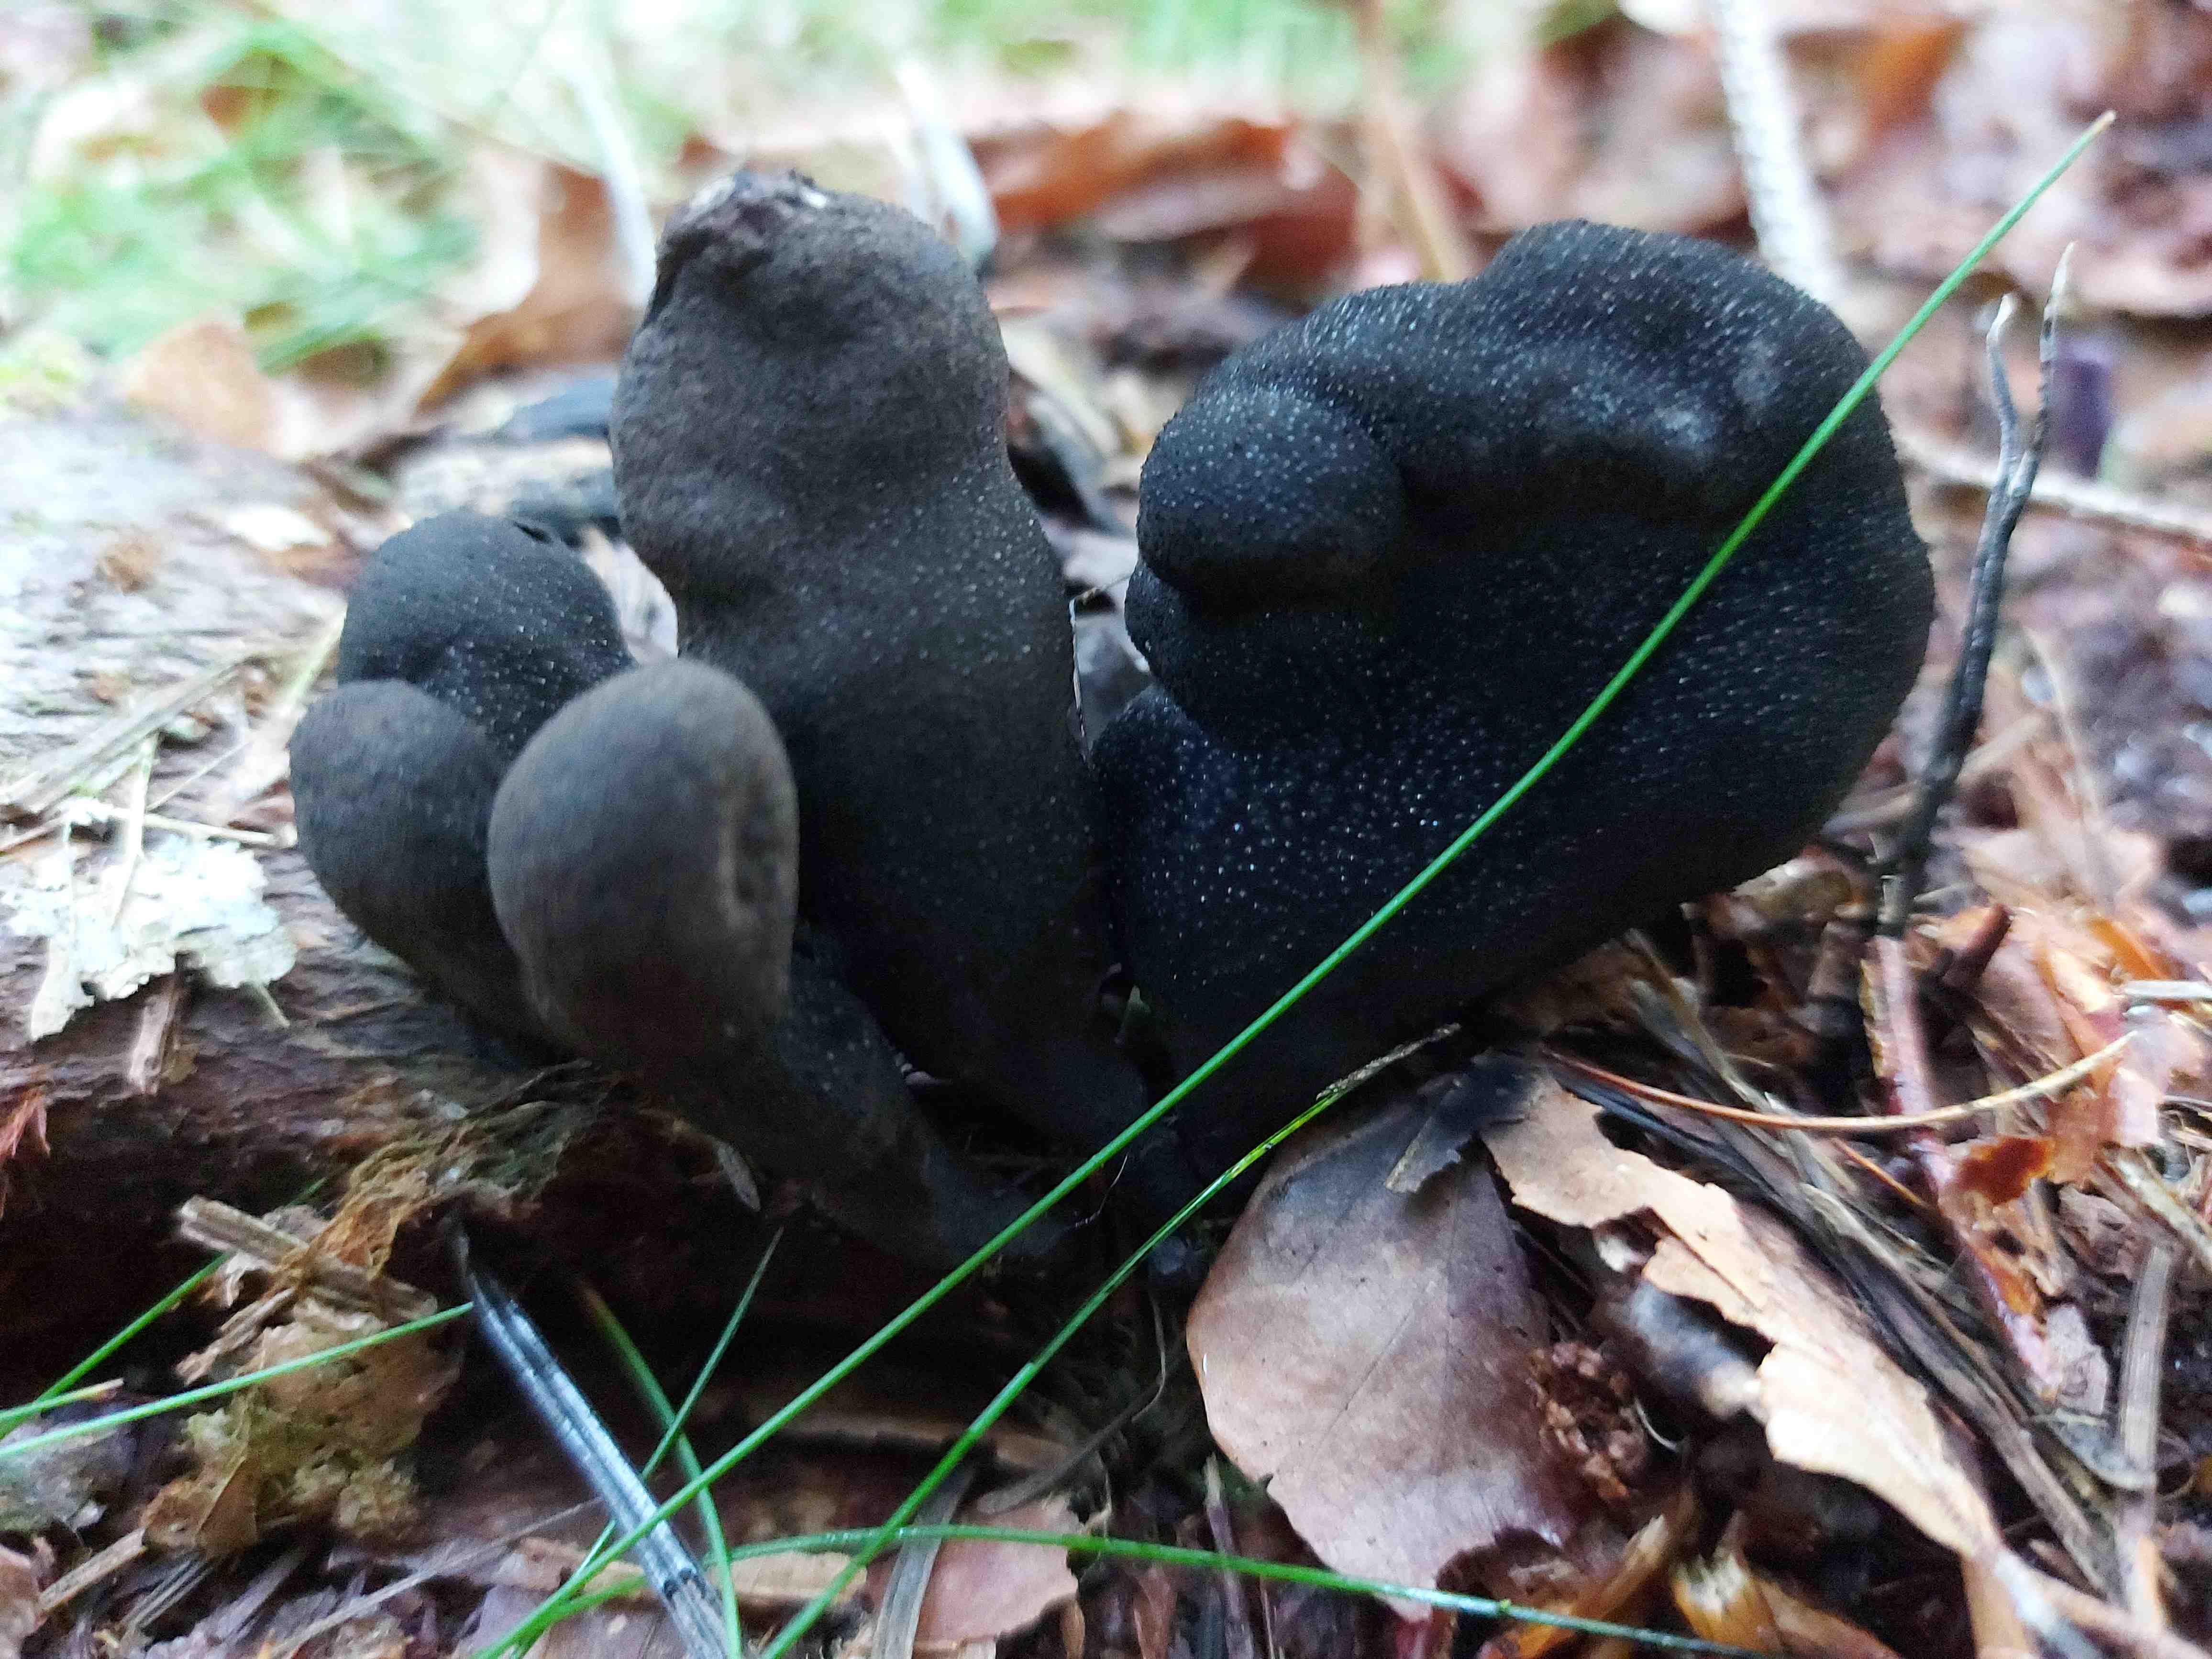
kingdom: Fungi
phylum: Ascomycota
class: Sordariomycetes
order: Xylariales
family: Xylariaceae
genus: Xylaria
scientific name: Xylaria polymorpha
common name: kølle-stødsvamp
